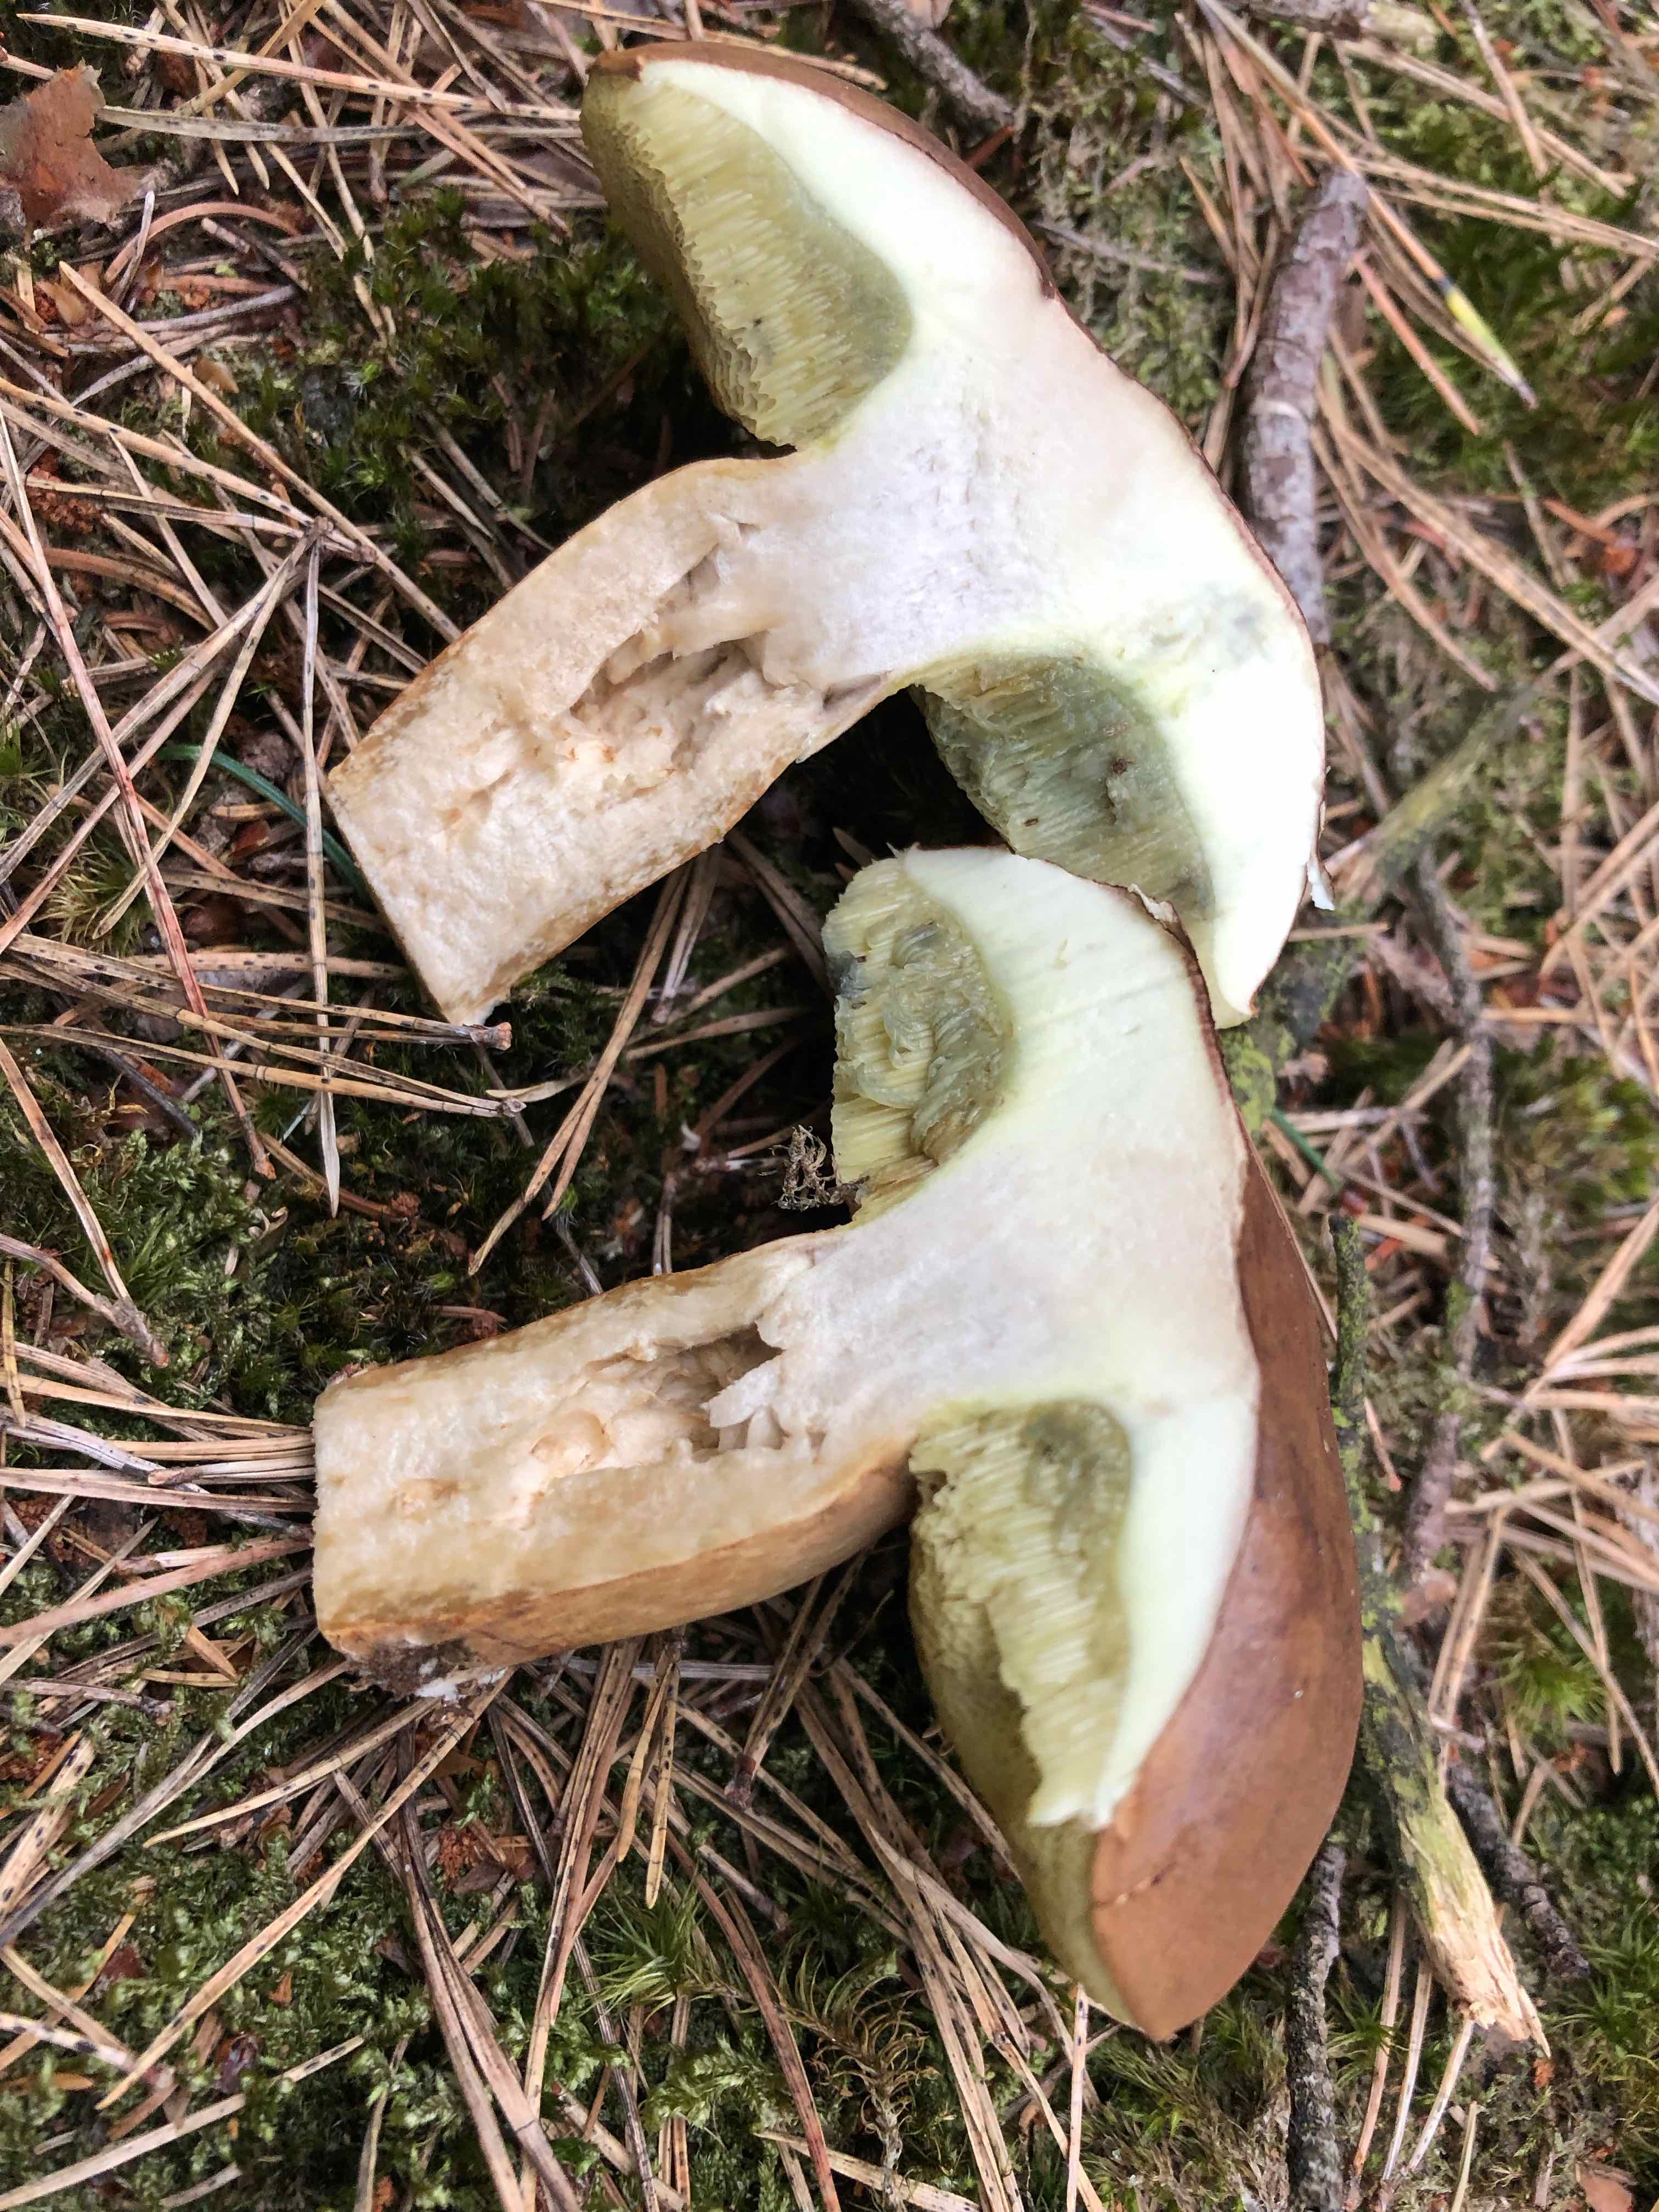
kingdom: Fungi
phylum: Basidiomycota
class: Agaricomycetes
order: Boletales
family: Boletaceae
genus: Imleria
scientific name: Imleria badia
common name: brunstokket rørhat
